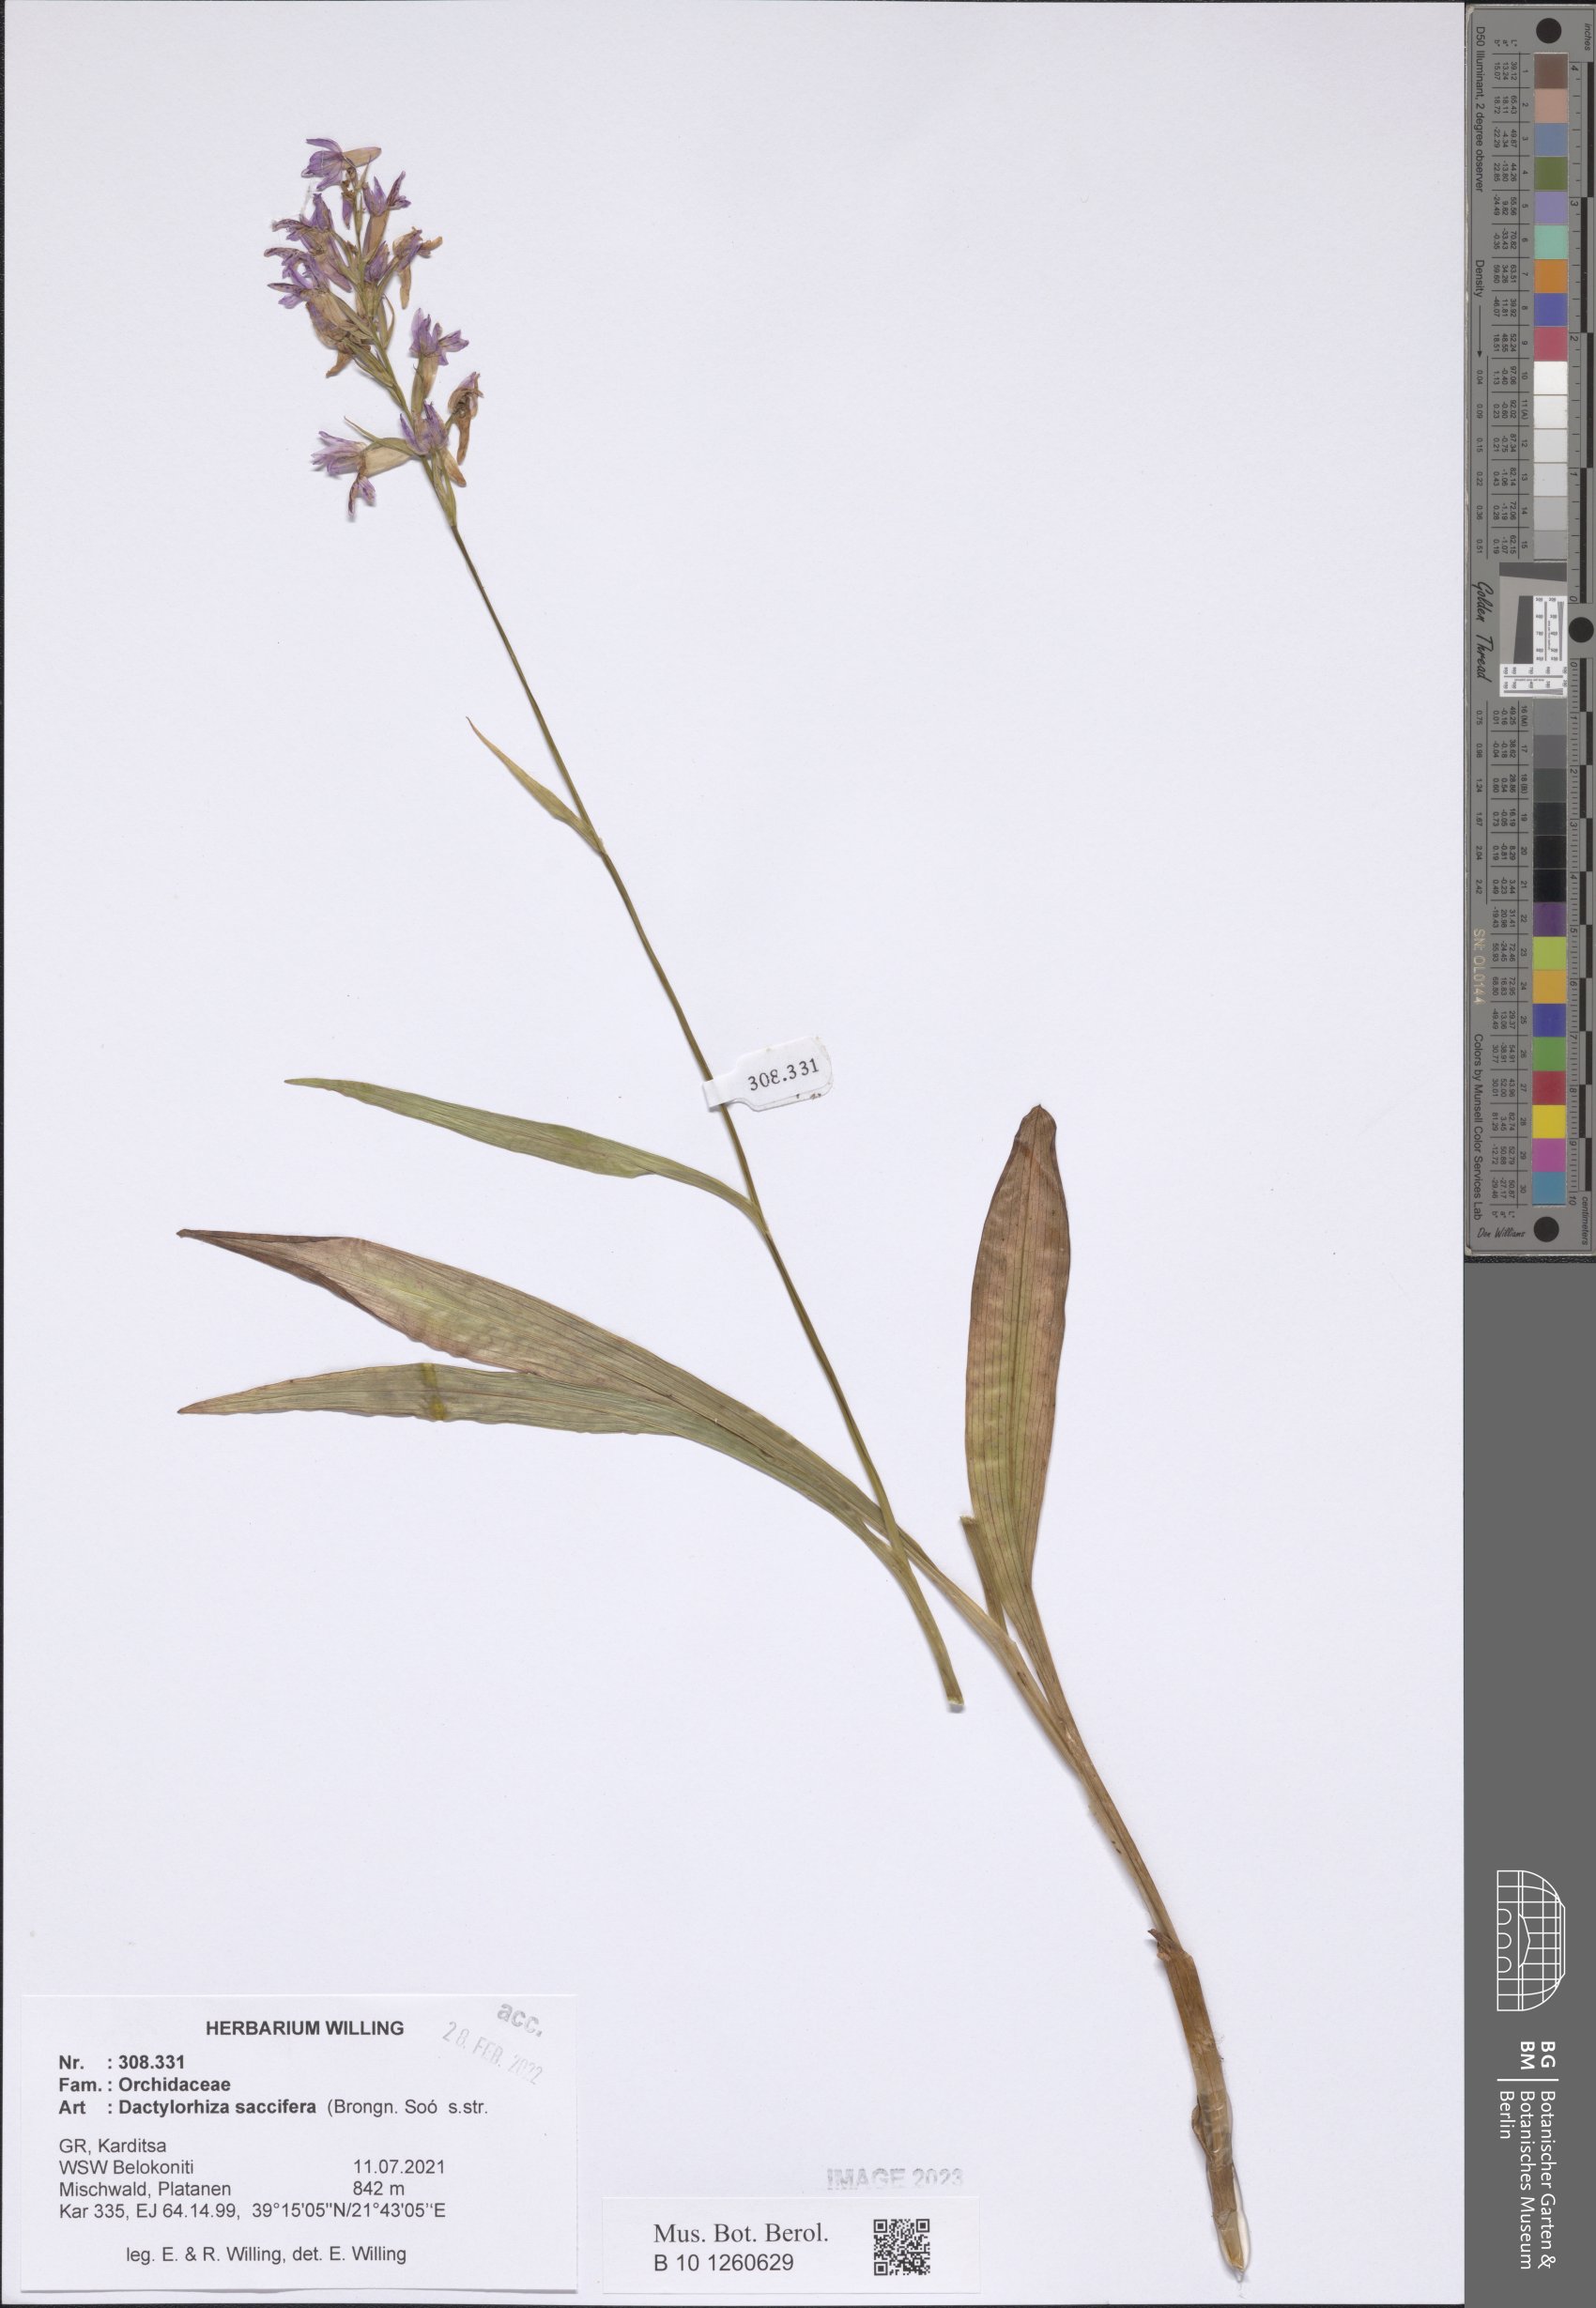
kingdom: Plantae
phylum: Tracheophyta
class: Liliopsida
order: Asparagales
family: Orchidaceae
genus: Dactylorhiza
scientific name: Dactylorhiza maculata
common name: Heath spotted-orchid
